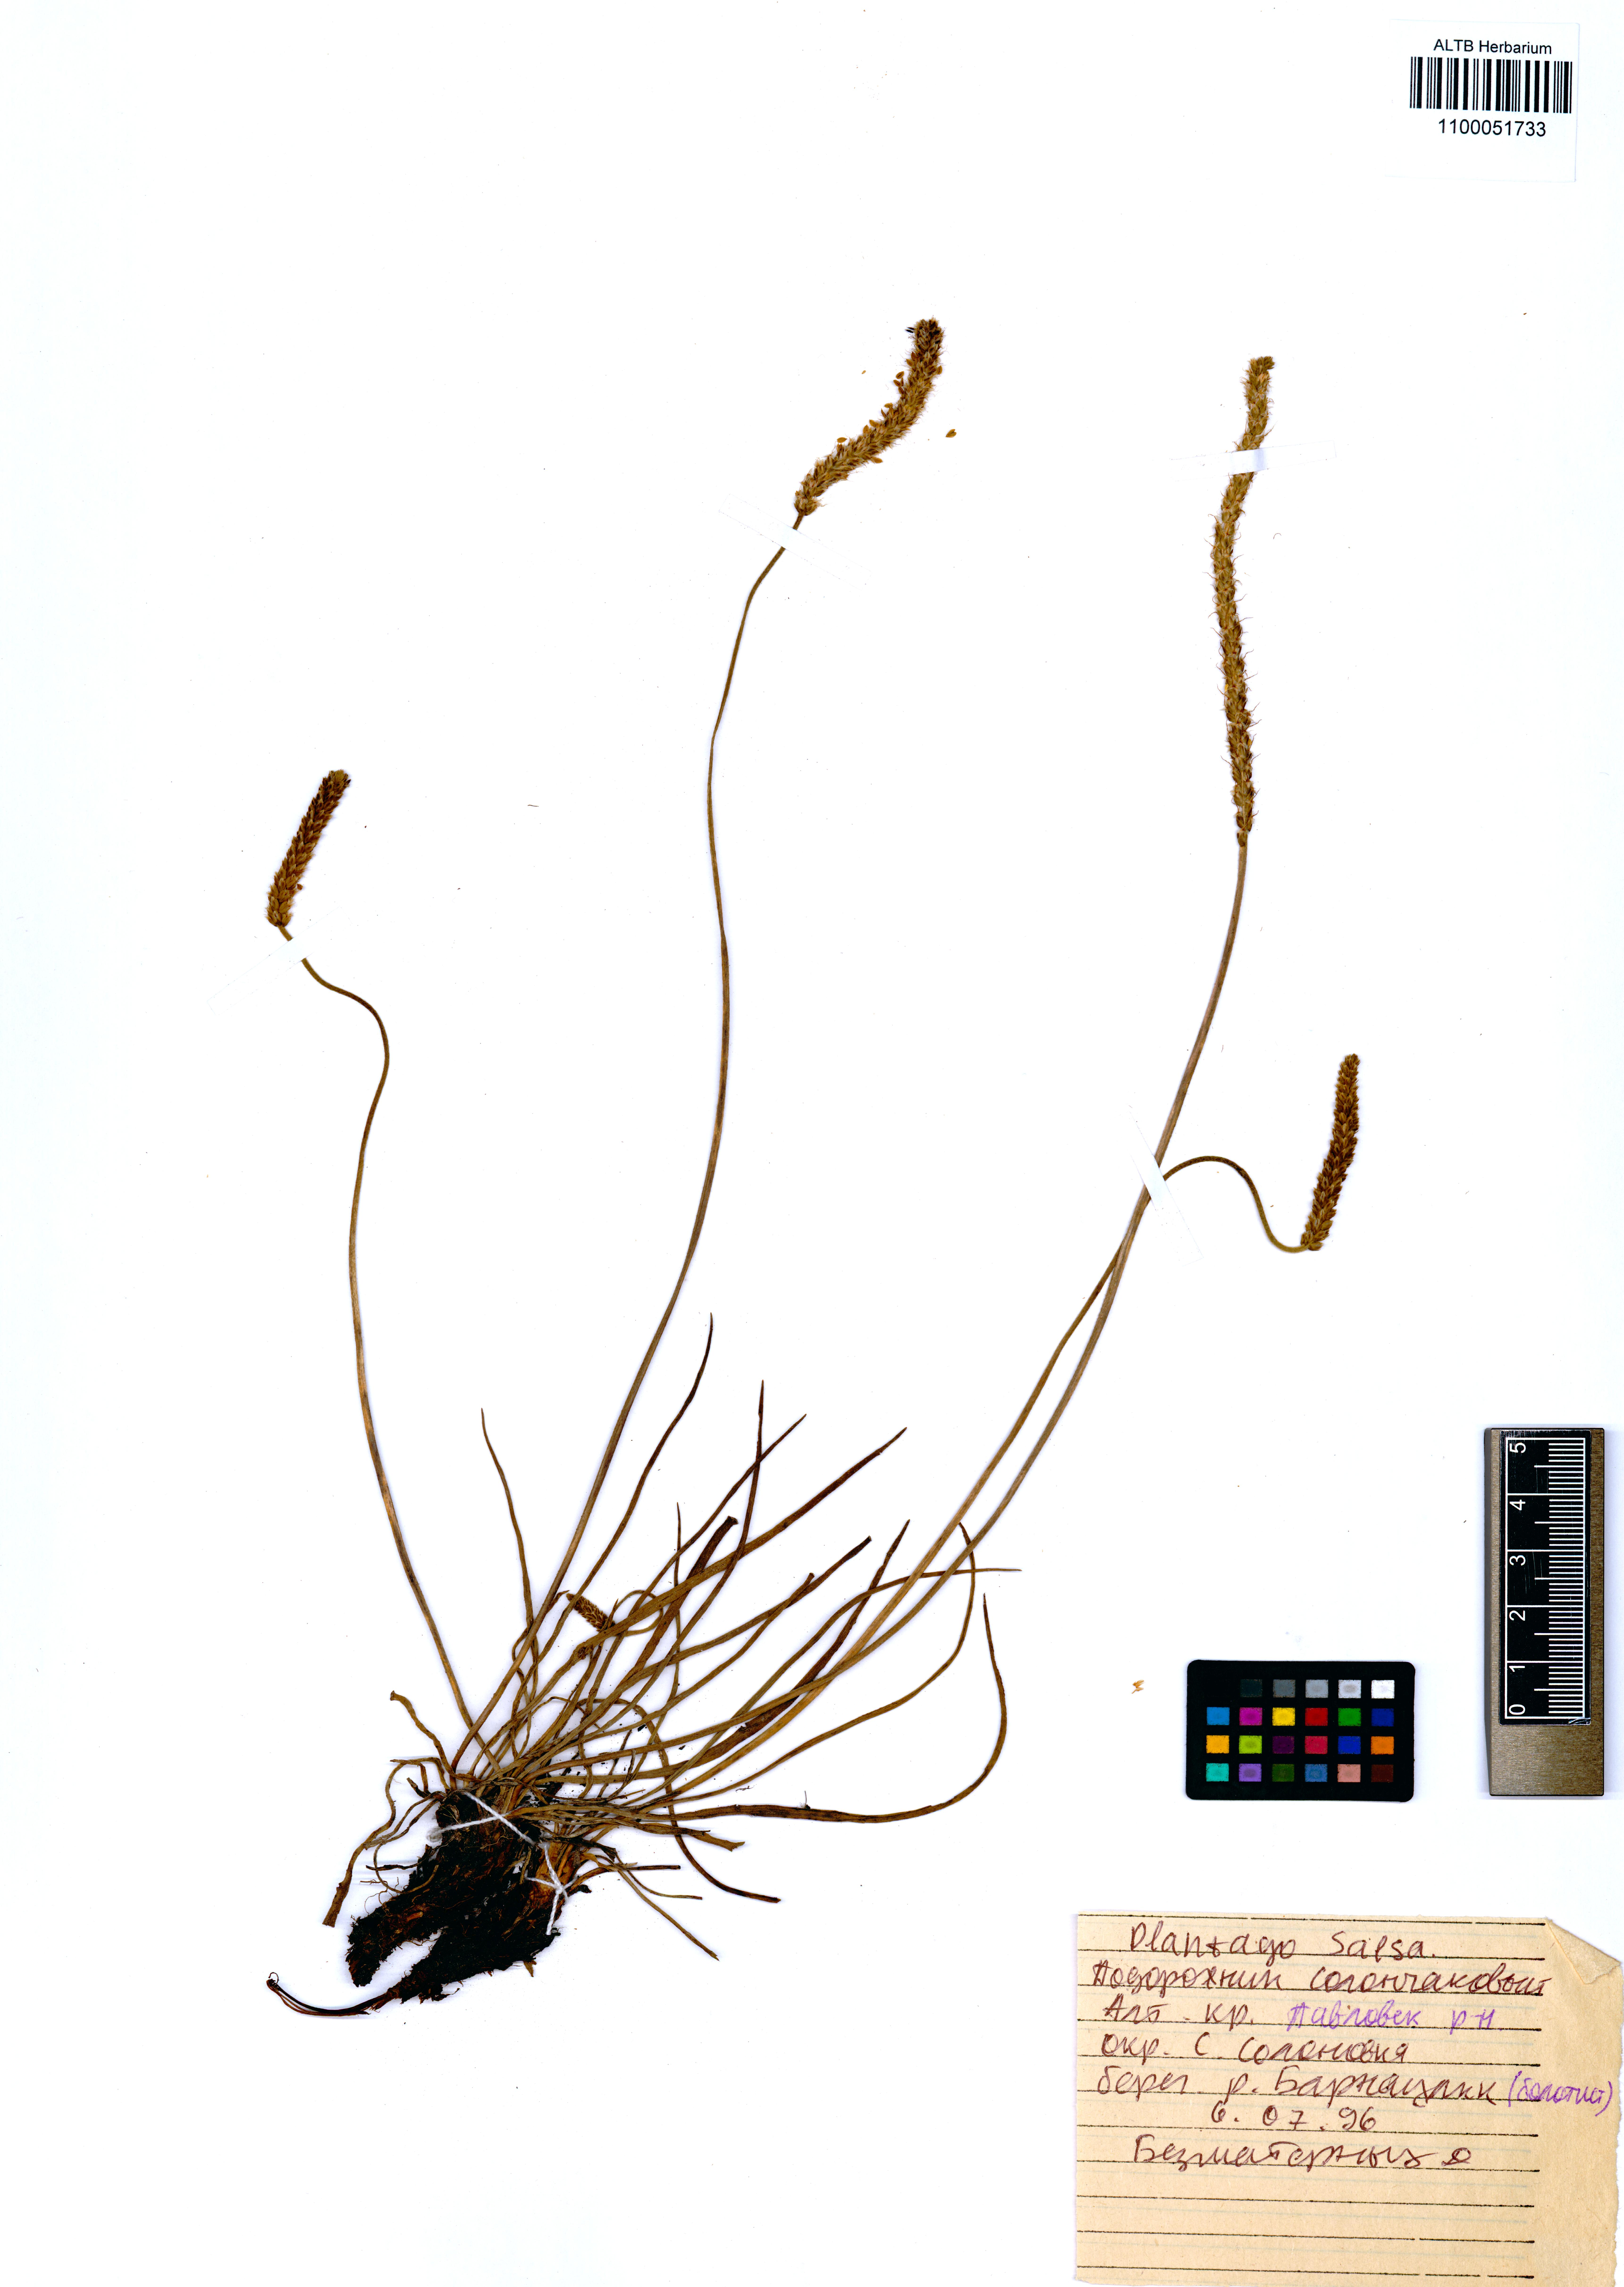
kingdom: Plantae
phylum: Tracheophyta
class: Magnoliopsida
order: Lamiales
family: Plantaginaceae
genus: Plantago
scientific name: Plantago salsa
